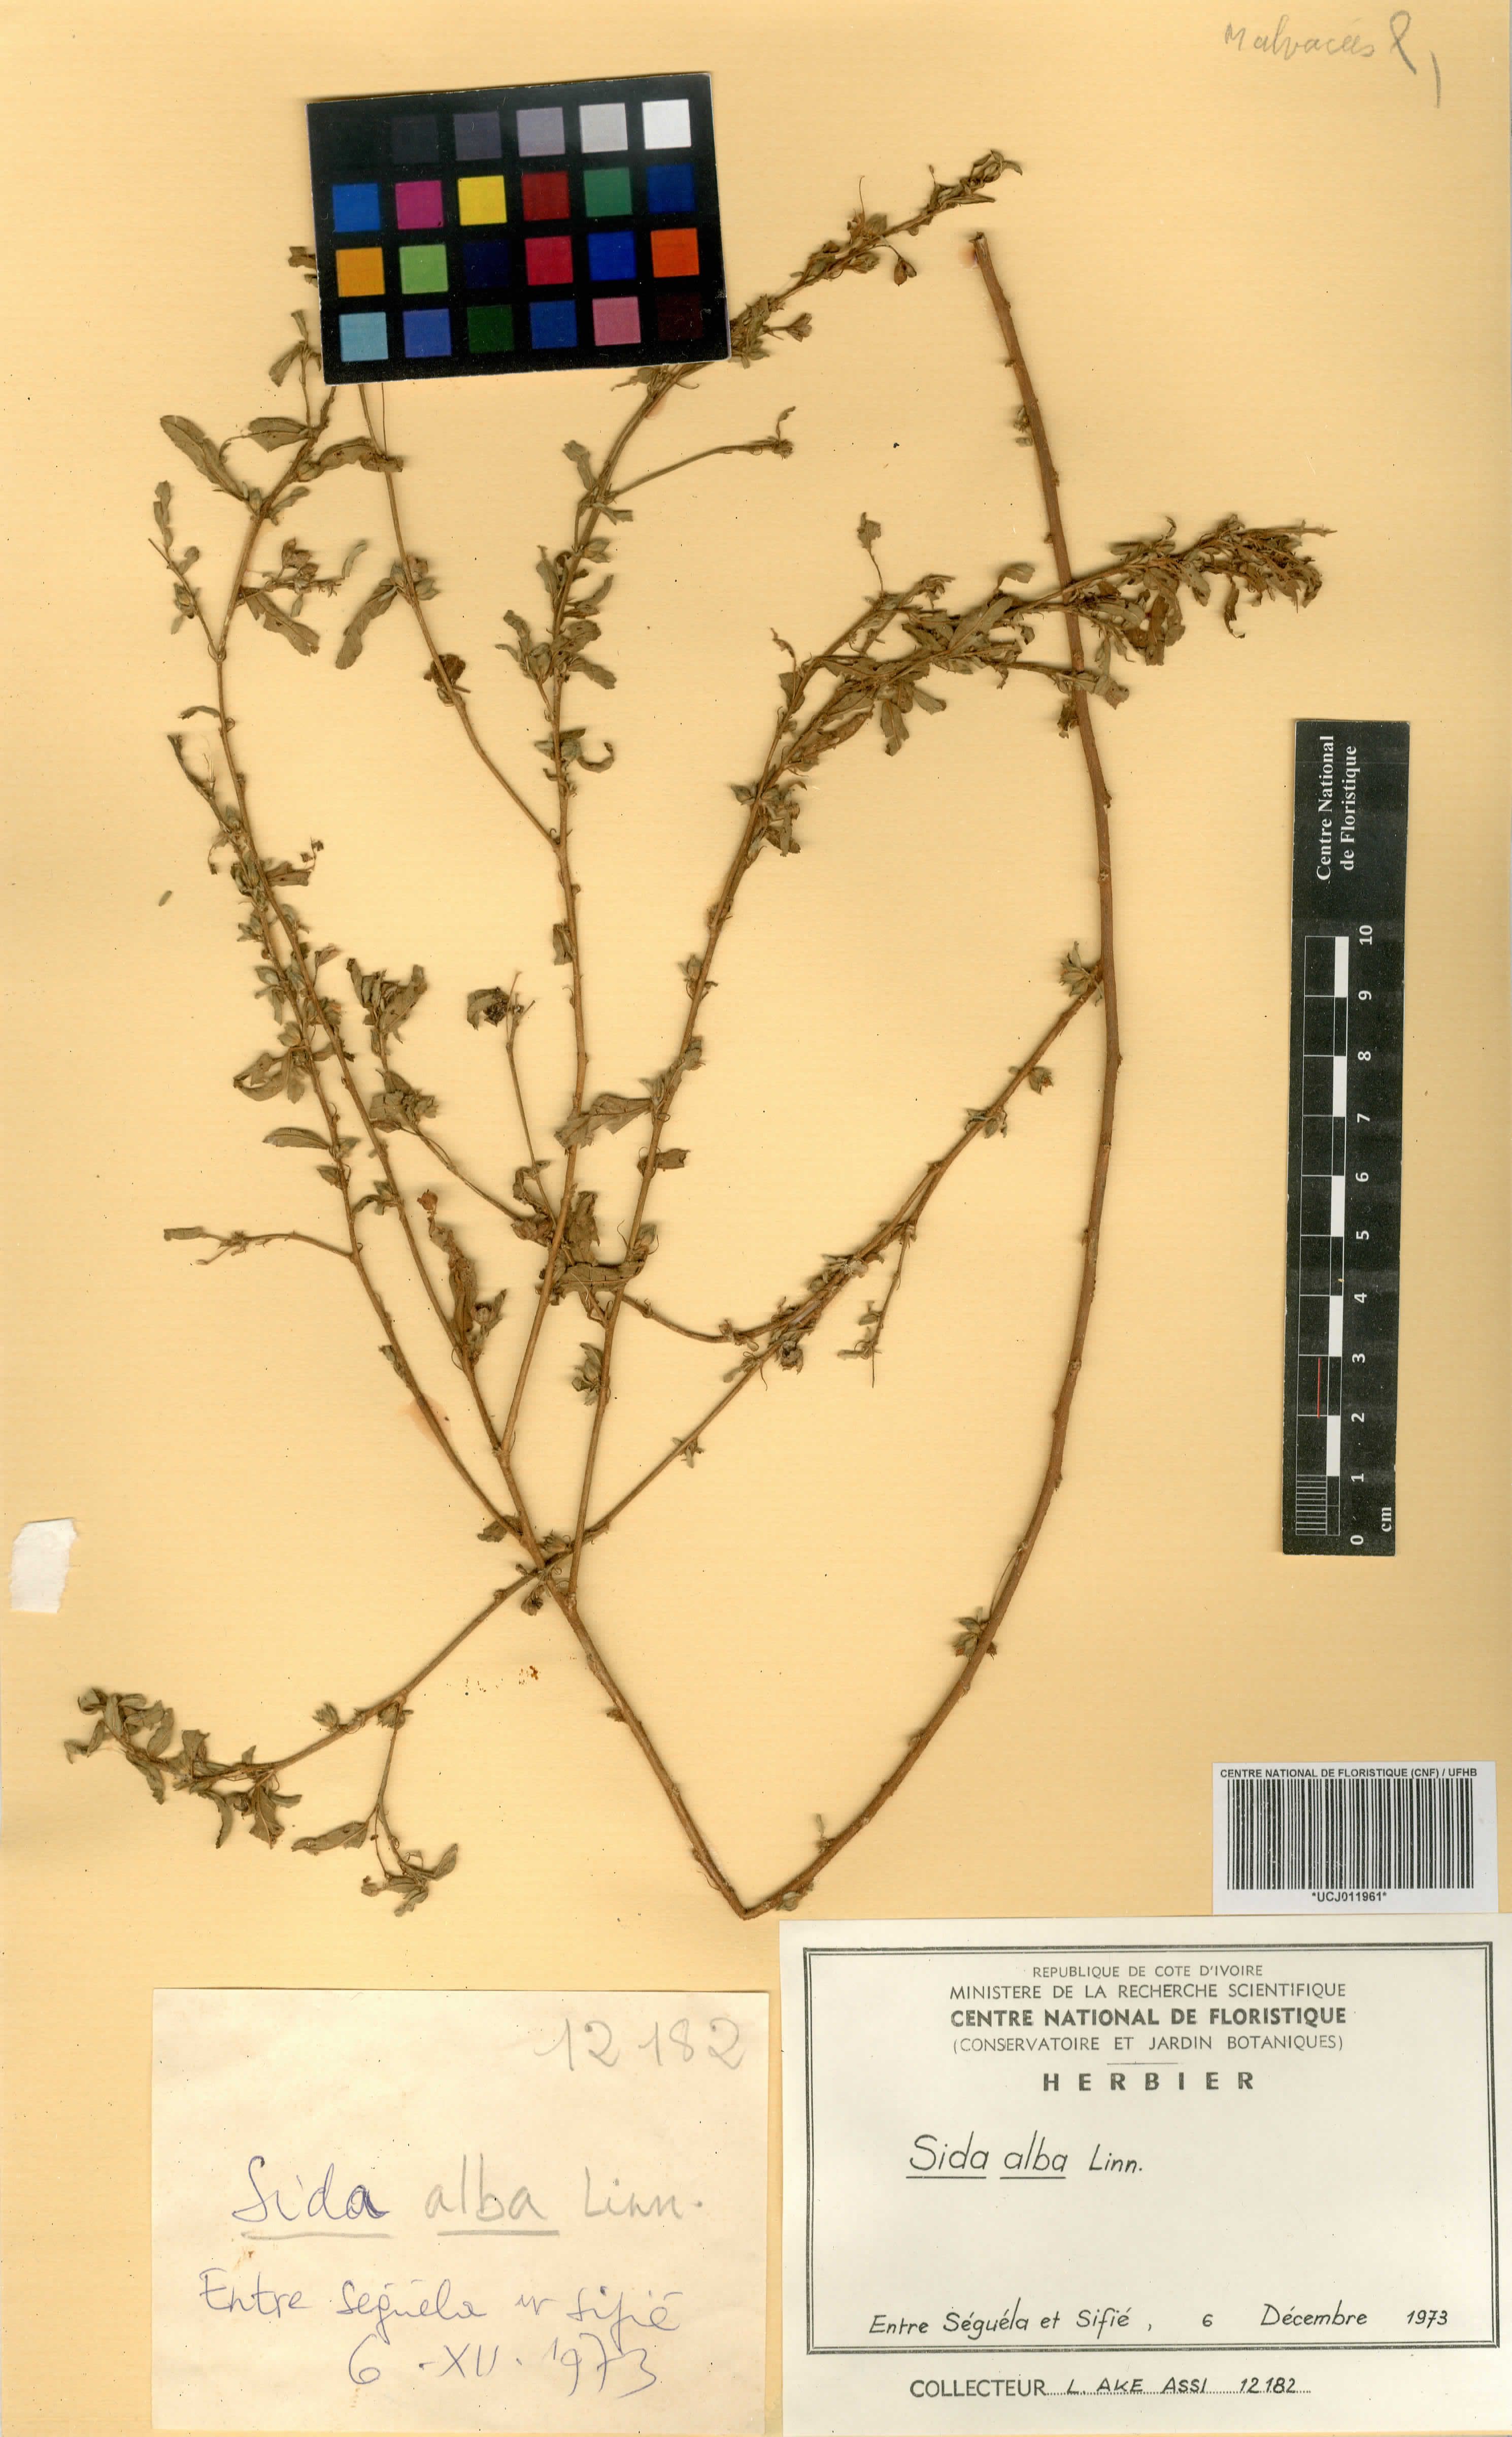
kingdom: Plantae
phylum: Tracheophyta
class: Magnoliopsida
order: Malvales
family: Malvaceae
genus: Sida
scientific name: Sida alba
